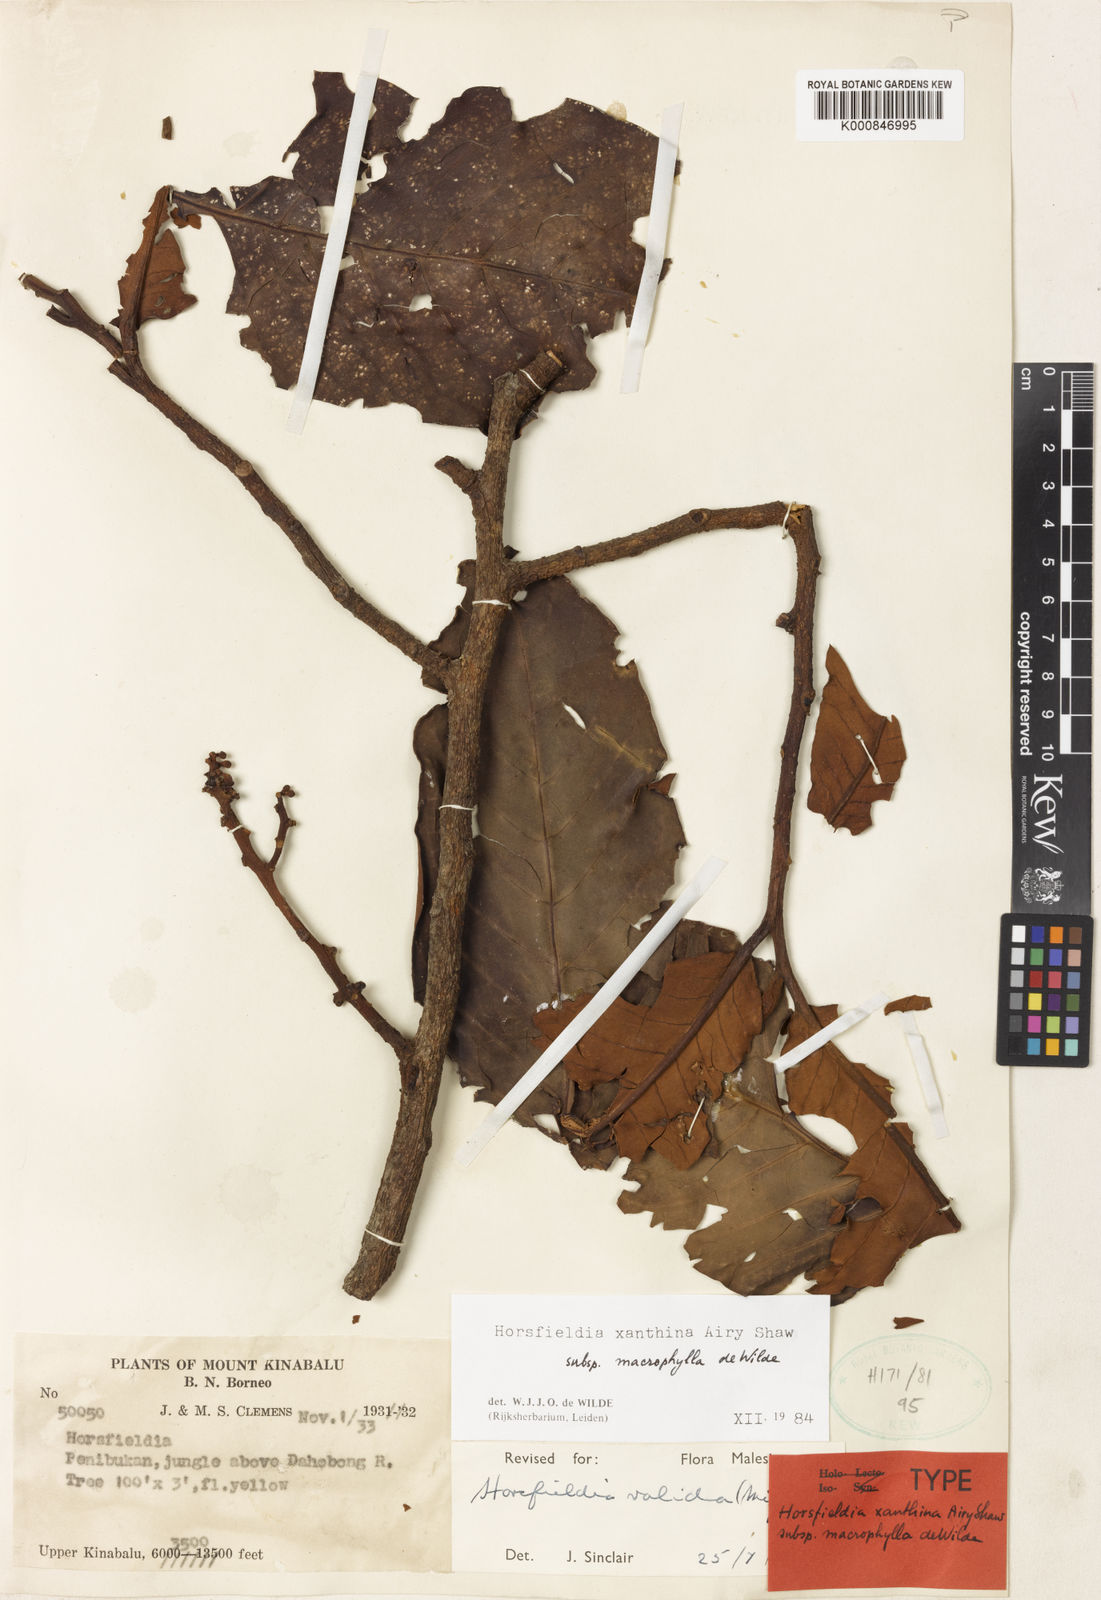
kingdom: Plantae
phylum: Tracheophyta
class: Magnoliopsida
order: Magnoliales
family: Myristicaceae
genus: Horsfieldia
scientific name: Horsfieldia xanthina
